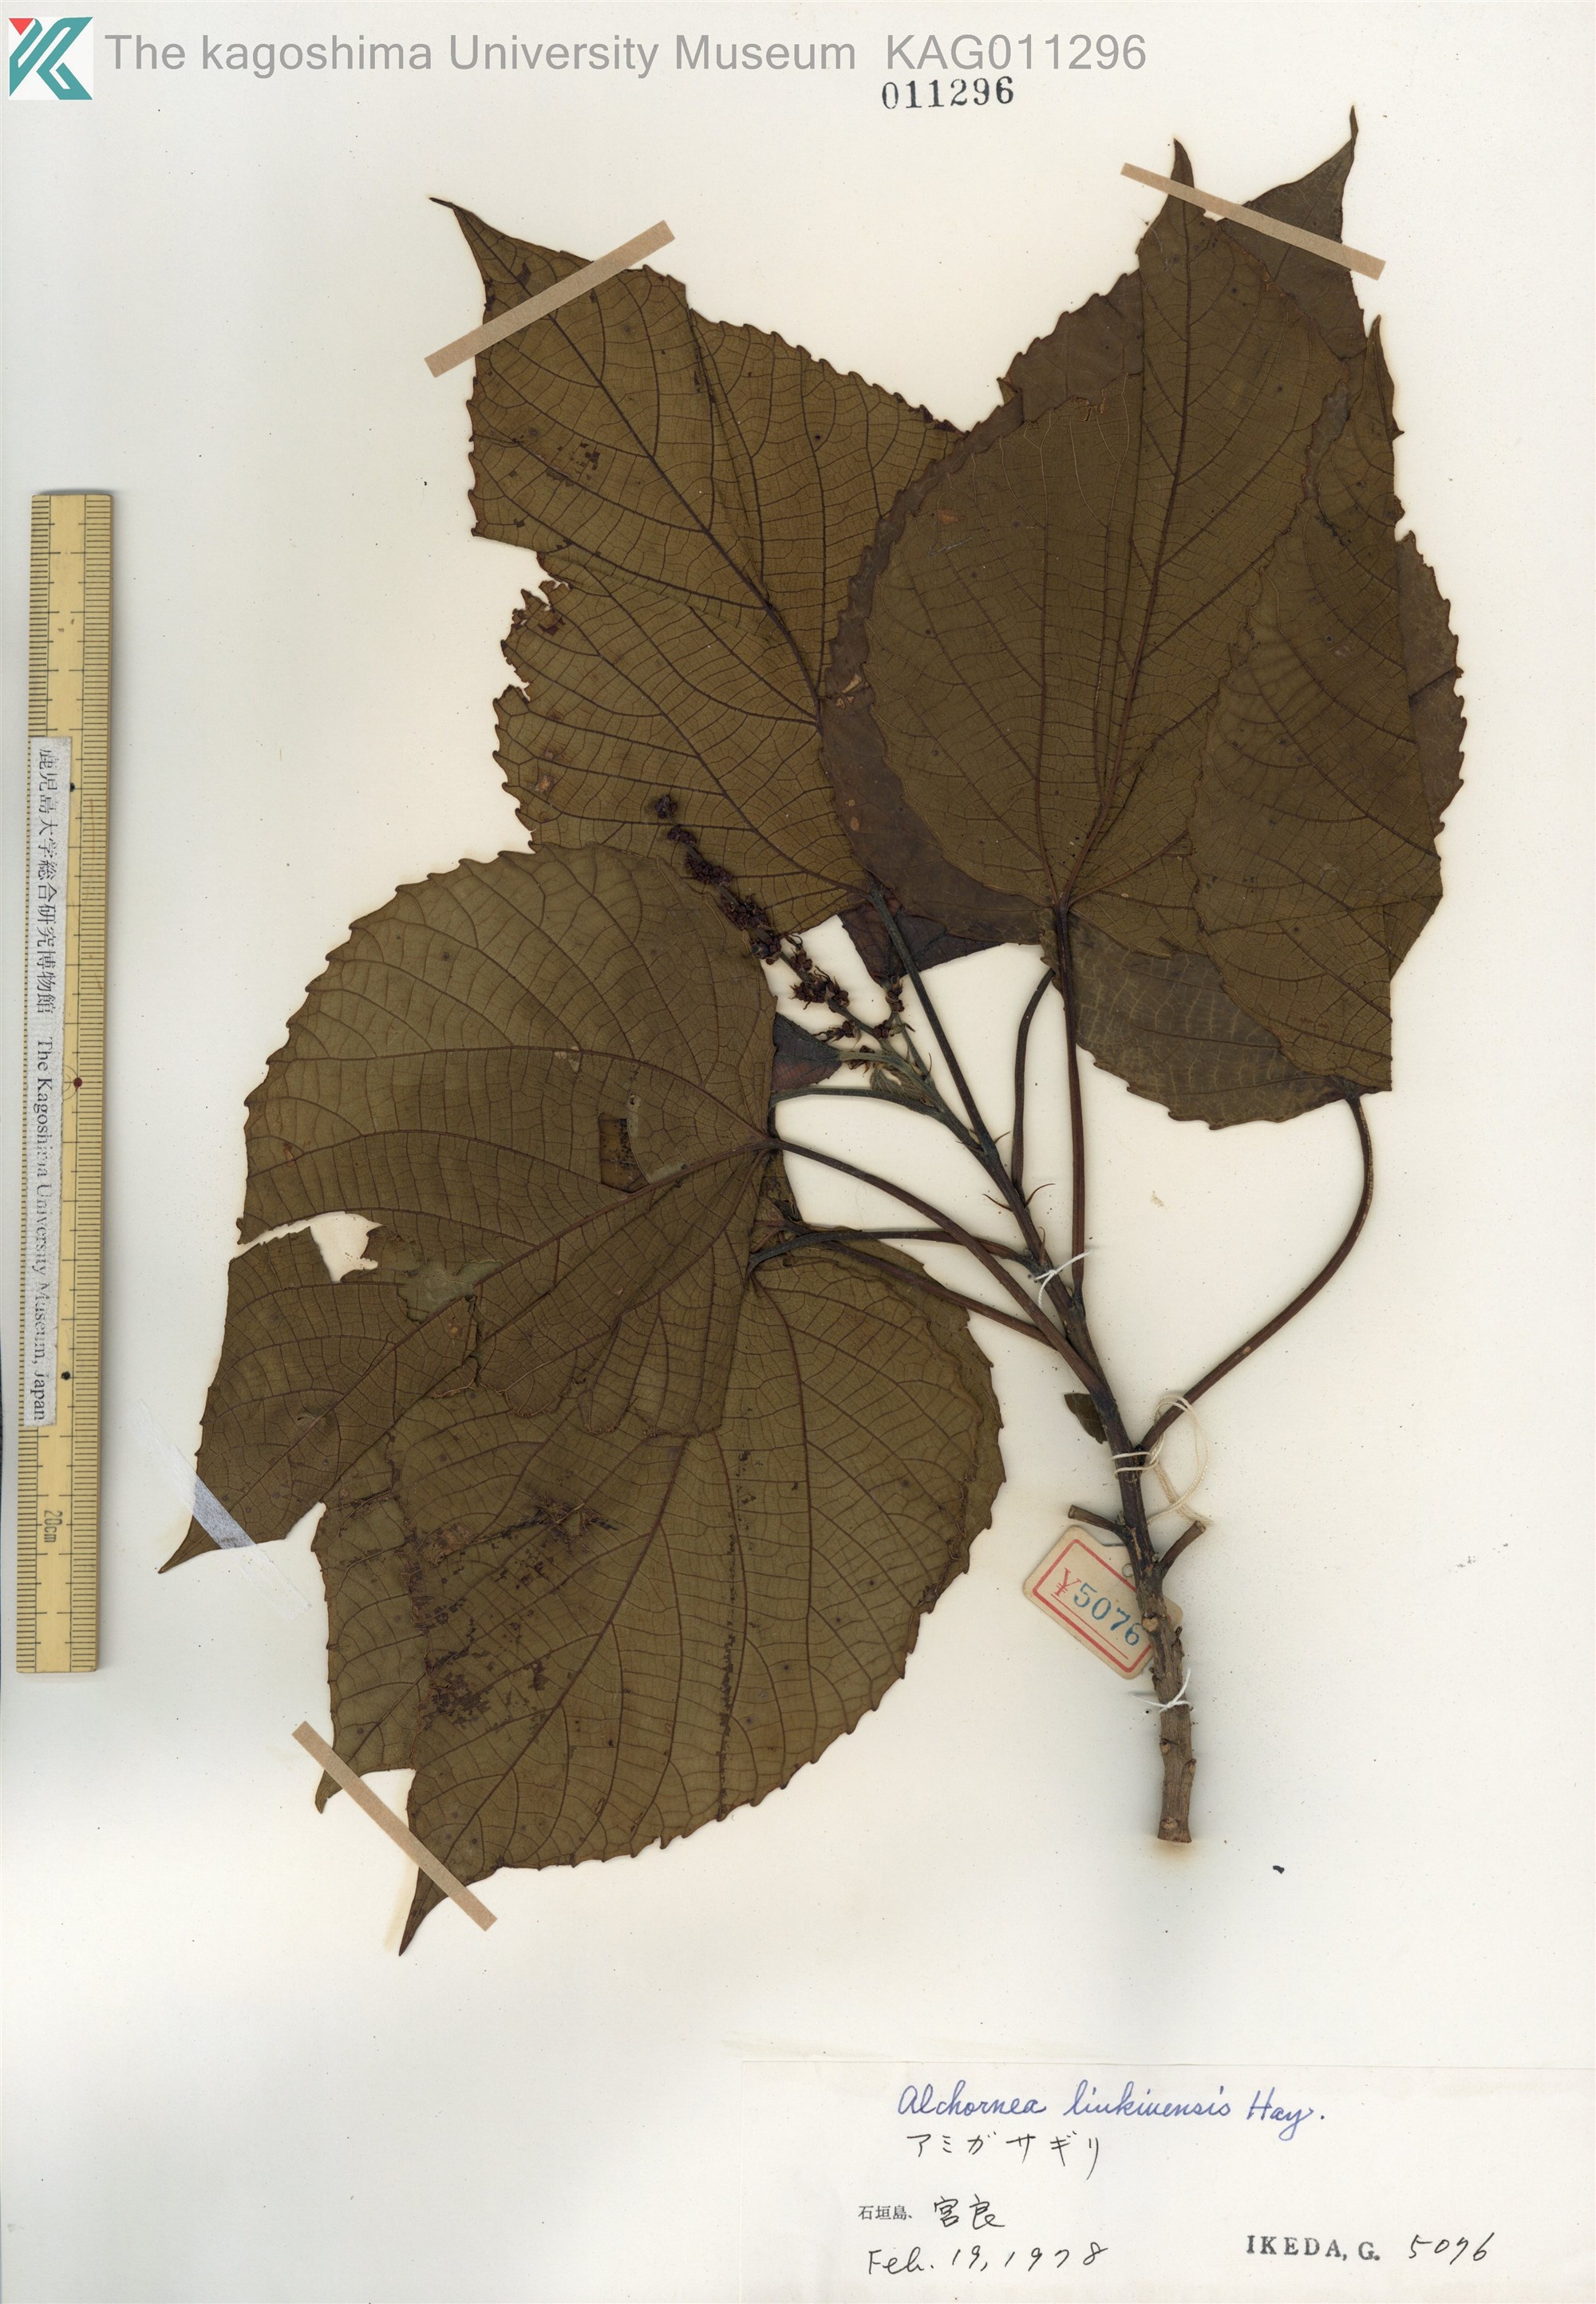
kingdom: Plantae
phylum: Tracheophyta
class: Magnoliopsida
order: Malpighiales
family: Euphorbiaceae
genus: Alchornea
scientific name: Alchornea liukiuensis
